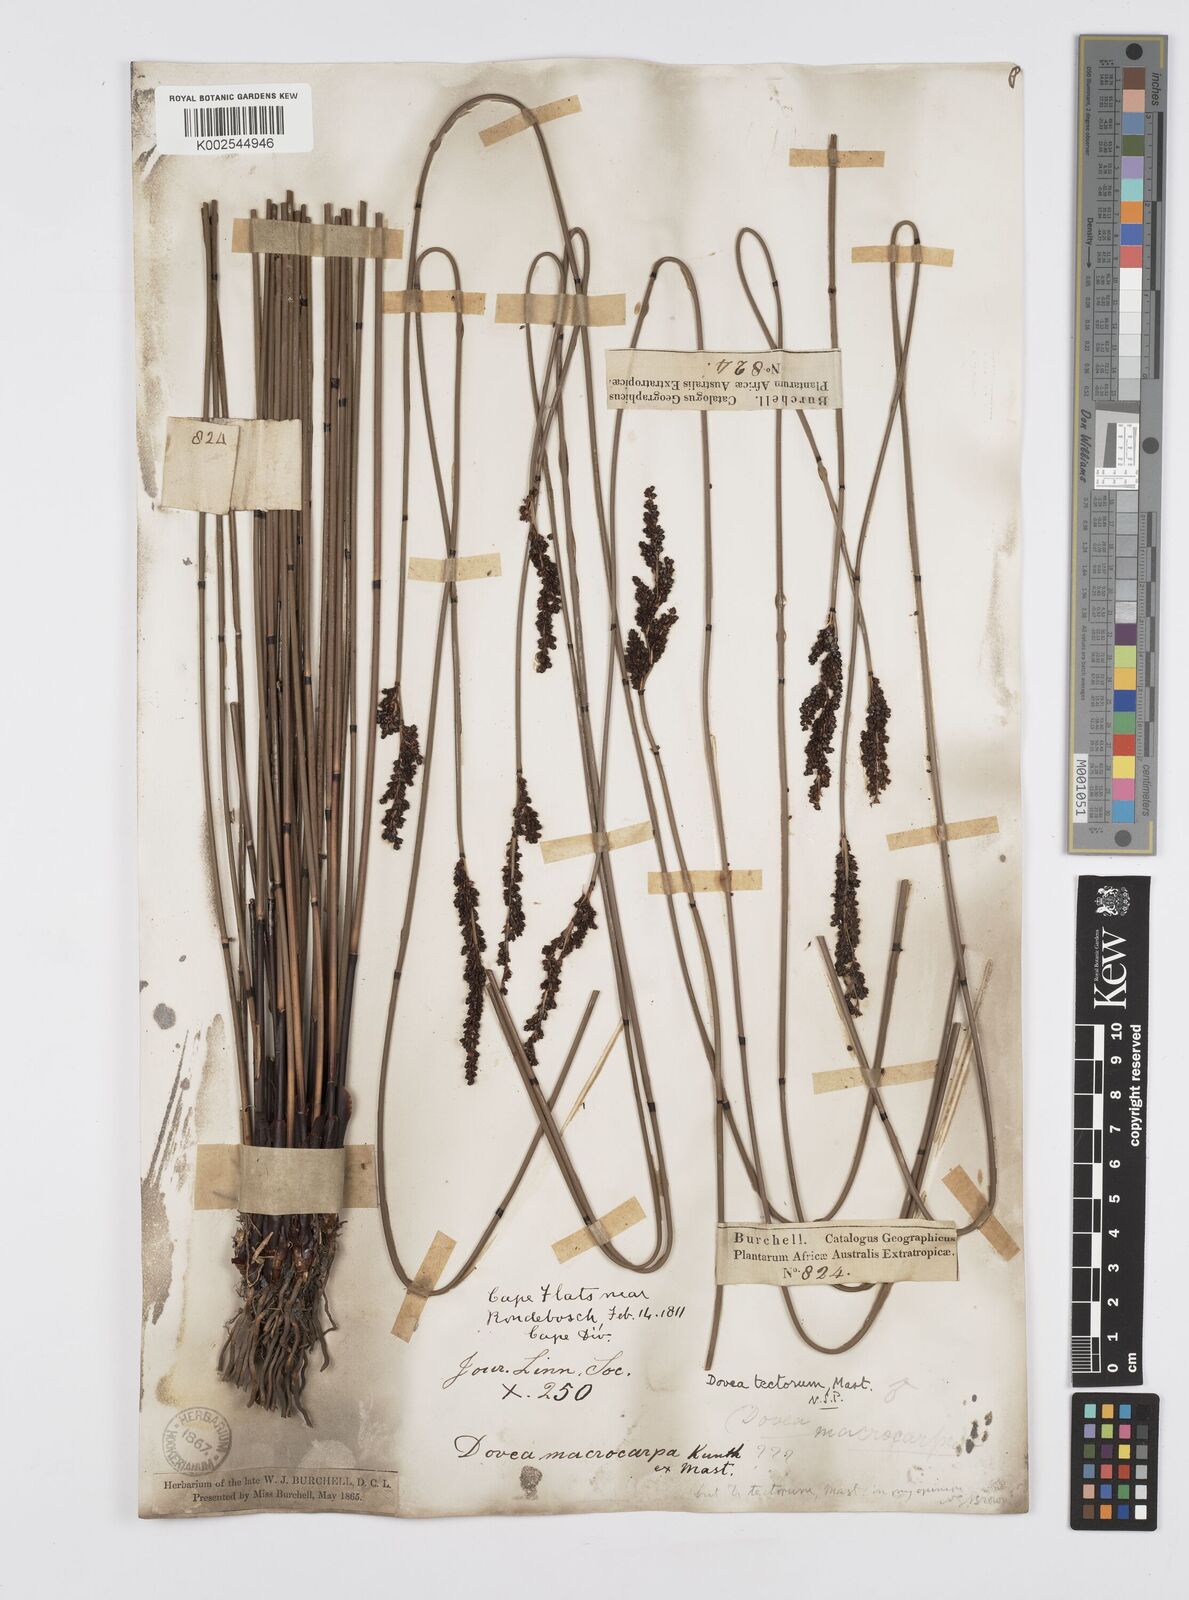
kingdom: Plantae
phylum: Tracheophyta
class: Liliopsida
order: Poales
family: Restionaceae
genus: Elegia
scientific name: Elegia tectorum
